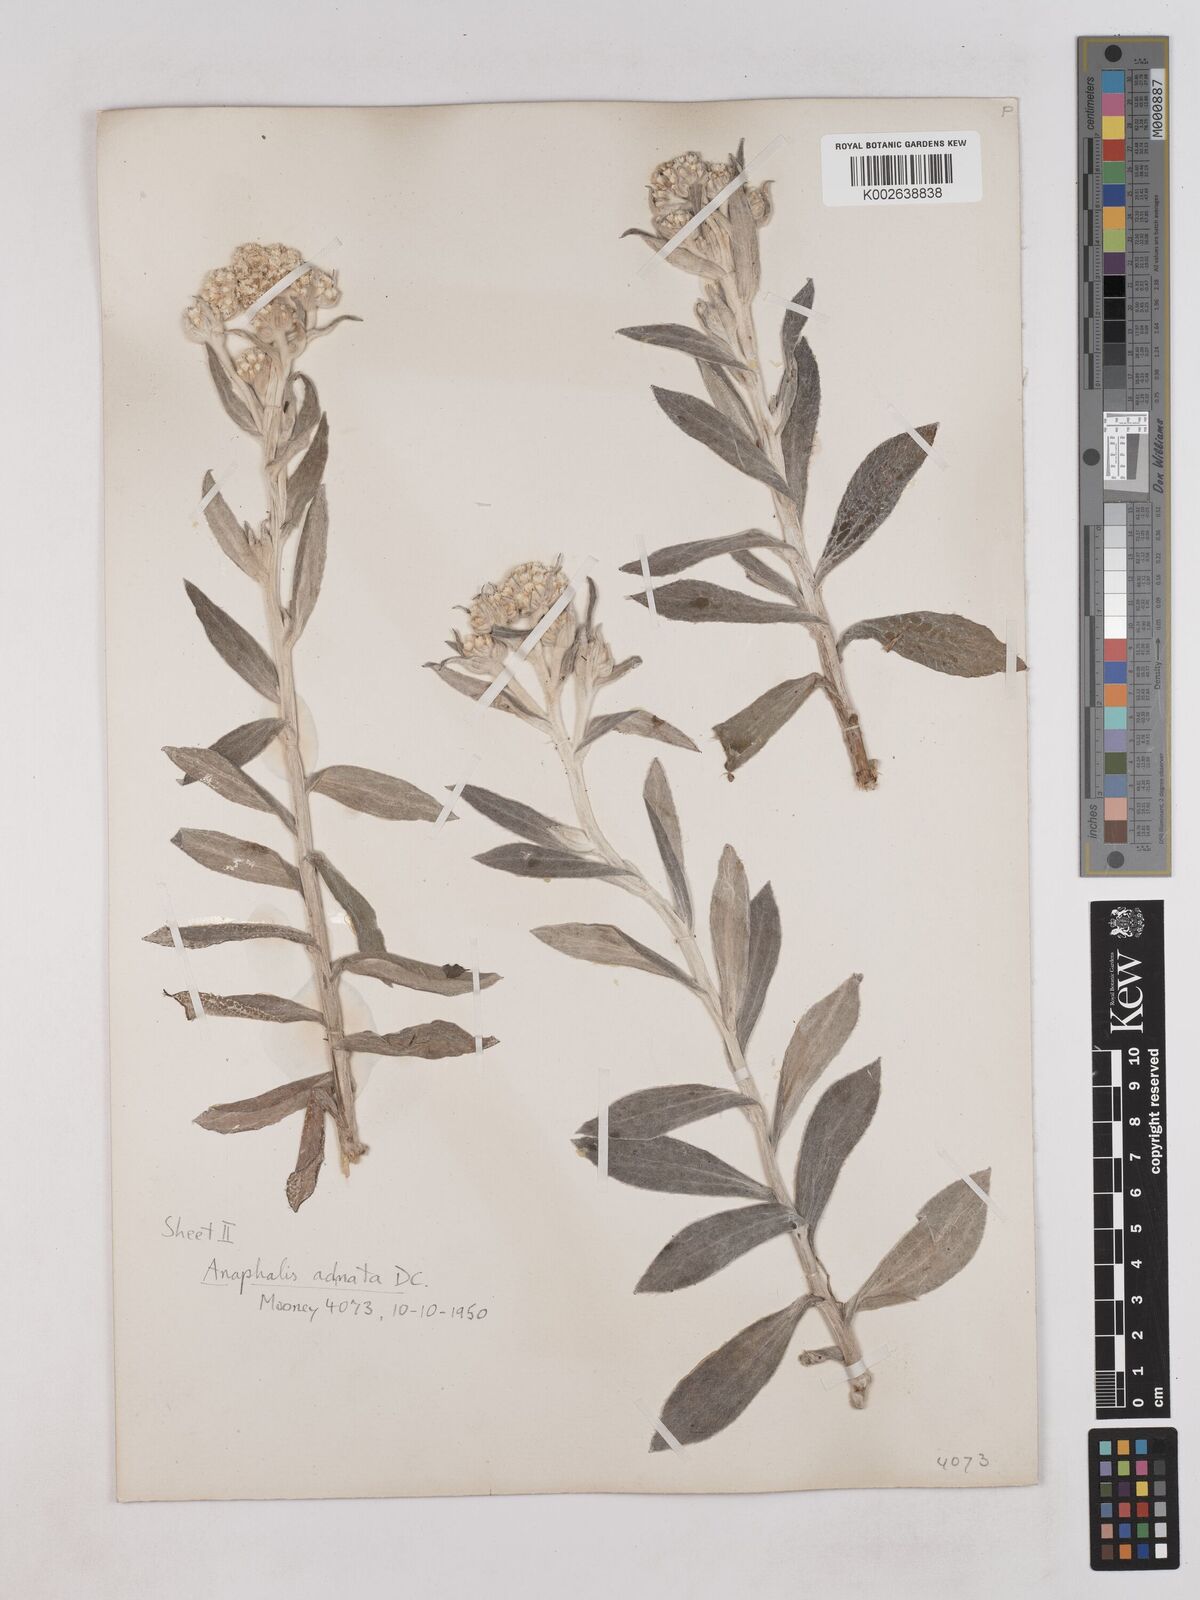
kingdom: Plantae
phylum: Tracheophyta
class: Magnoliopsida
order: Asterales
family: Asteraceae
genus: Pseudognaphalium
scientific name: Pseudognaphalium adnatum
